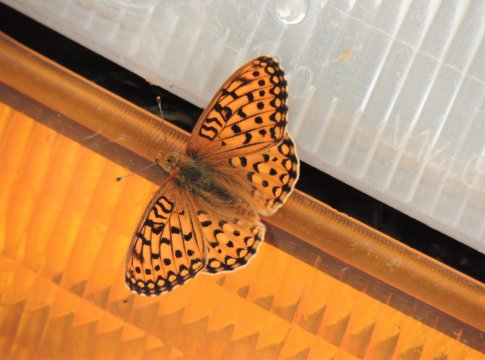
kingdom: Animalia
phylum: Arthropoda
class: Insecta
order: Lepidoptera
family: Nymphalidae
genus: Speyeria
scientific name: Speyeria mormonia
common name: Mormon Fritillary
